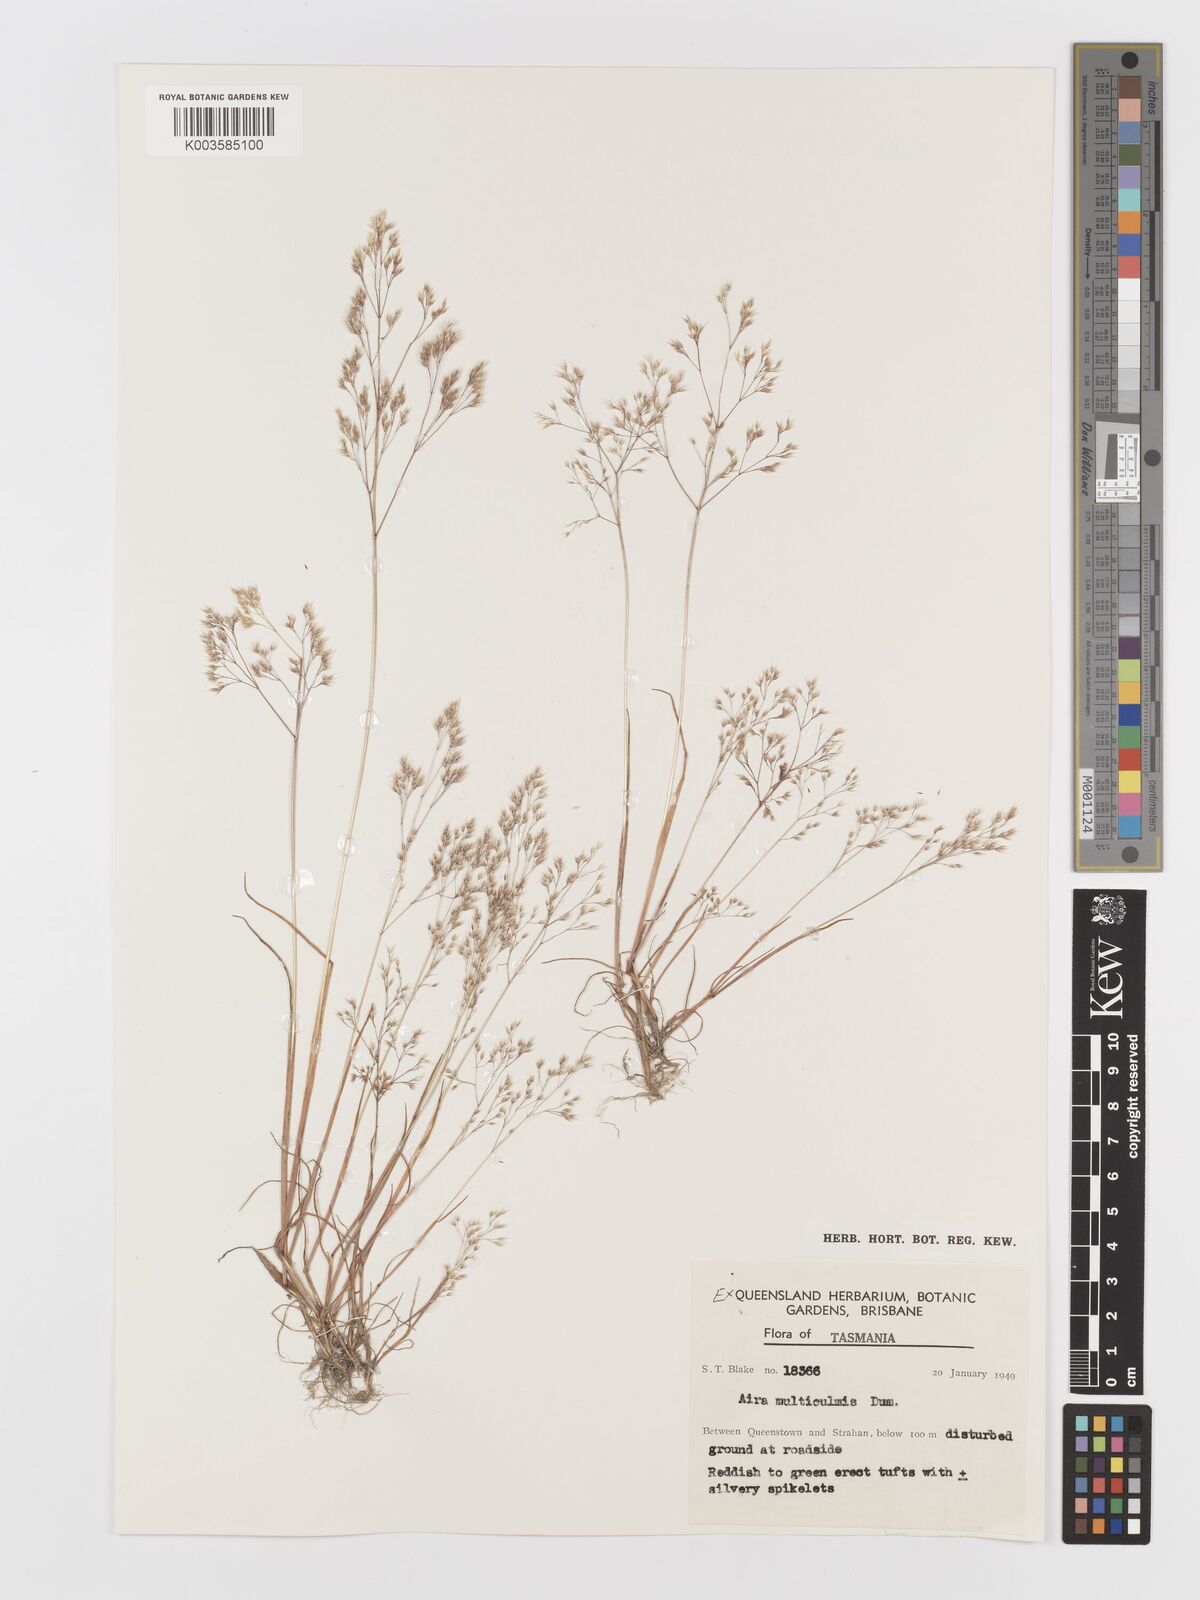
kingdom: Plantae
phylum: Tracheophyta
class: Liliopsida
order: Poales
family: Poaceae
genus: Aira
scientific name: Aira caryophyllea
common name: Silver hairgrass
